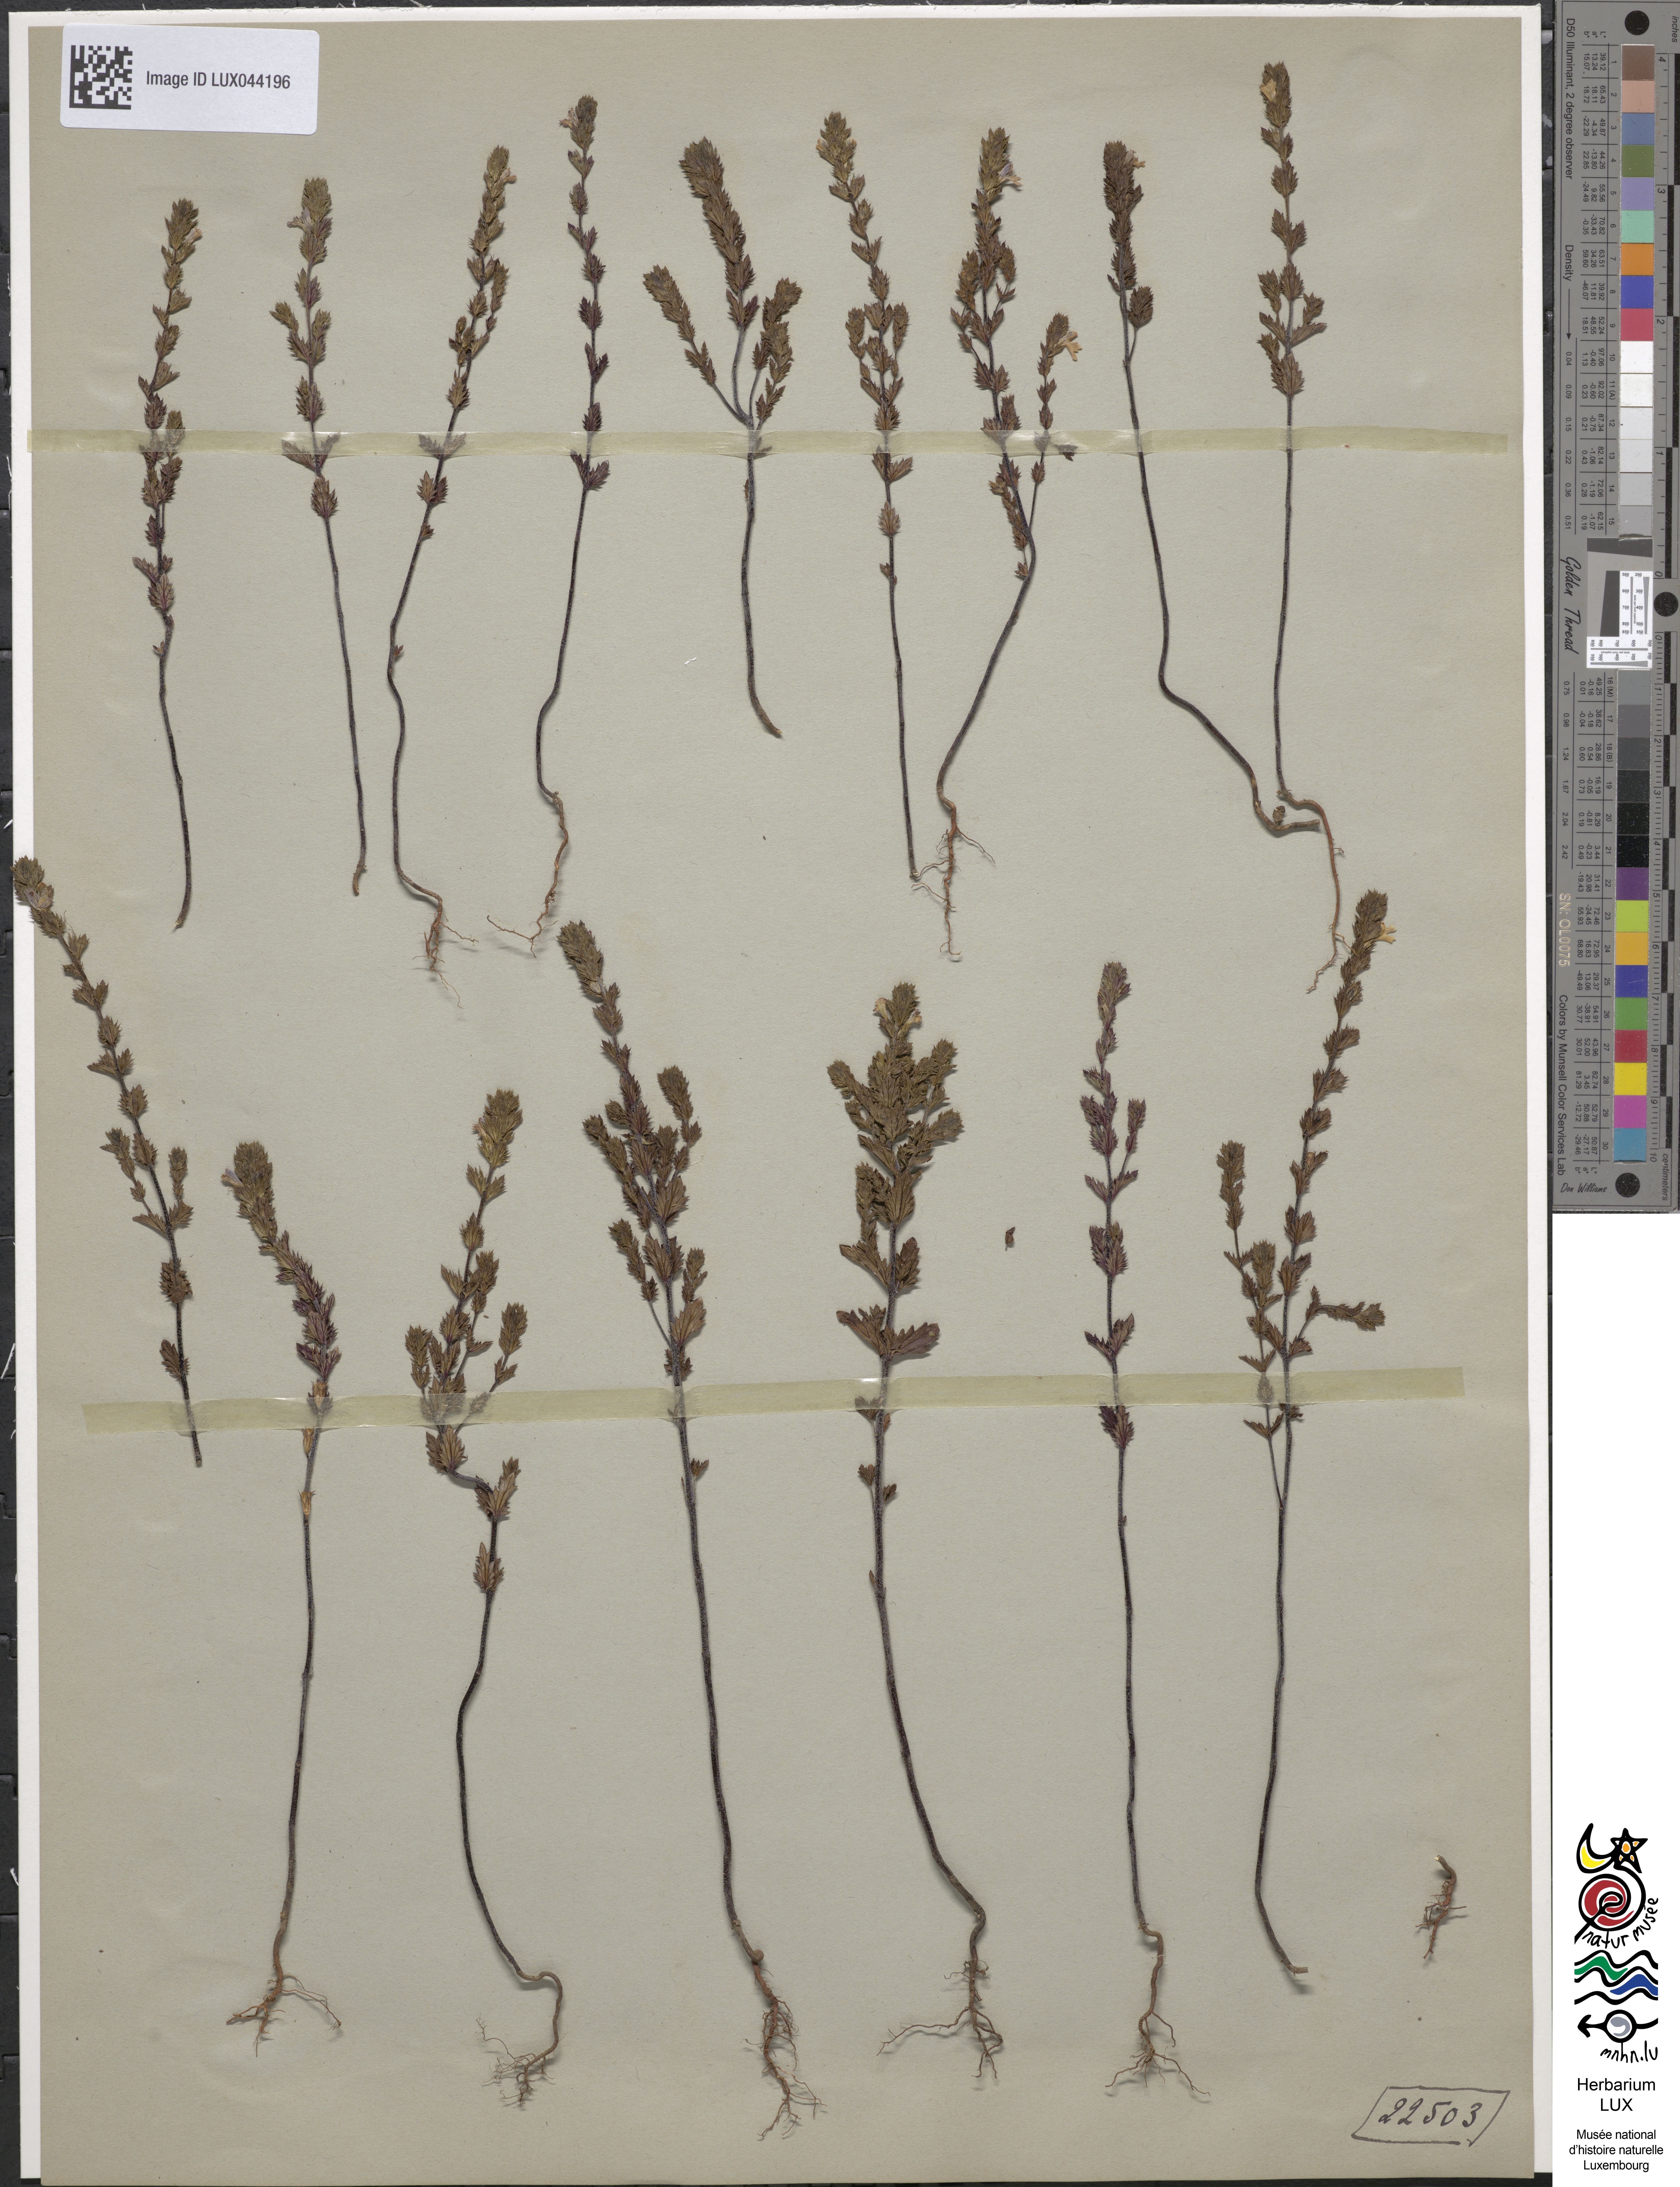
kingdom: Plantae
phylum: Tracheophyta
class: Magnoliopsida
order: Lamiales
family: Orobanchaceae
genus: Euphrasia
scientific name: Euphrasia stricta
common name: Drug eyebright
